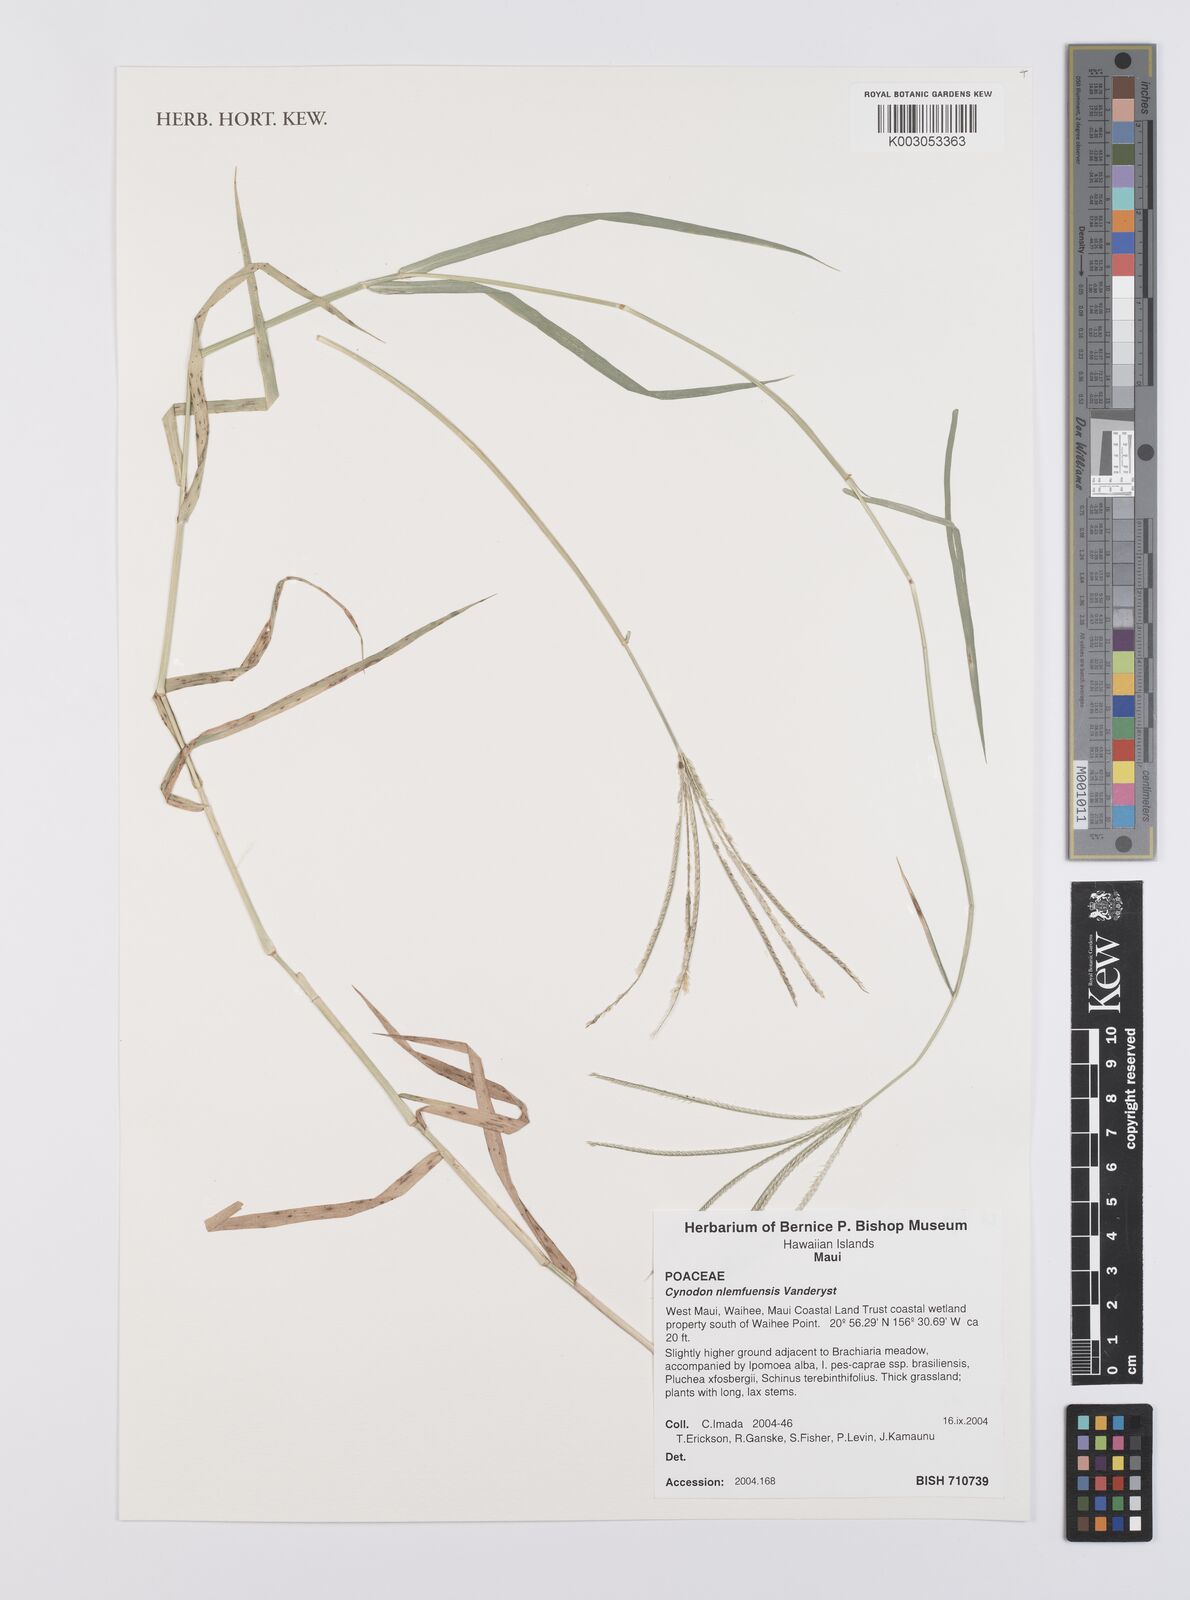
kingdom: Plantae
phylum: Tracheophyta
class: Liliopsida
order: Poales
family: Poaceae
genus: Cynodon
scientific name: Cynodon nlemfuensis
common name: African bermudagrass
